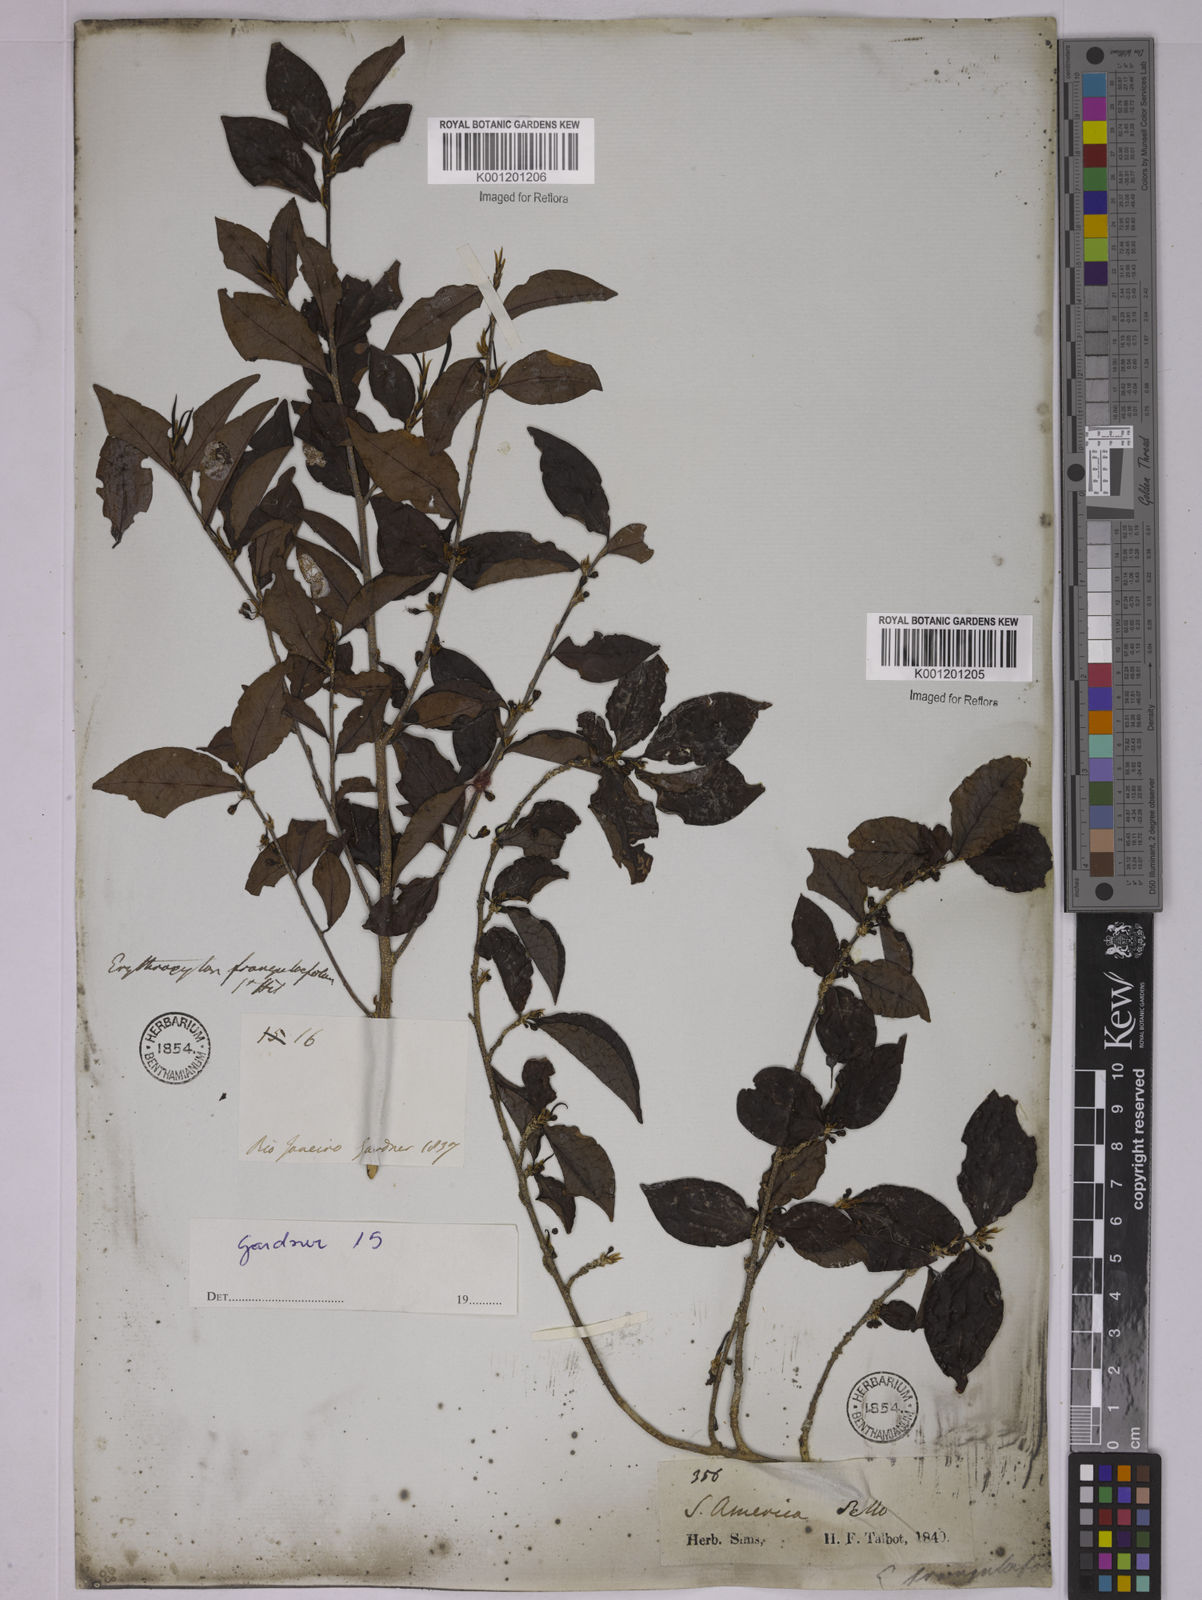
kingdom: Plantae
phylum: Tracheophyta
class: Magnoliopsida
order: Malpighiales
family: Erythroxylaceae
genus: Erythroxylum
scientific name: Erythroxylum frangulifolium
